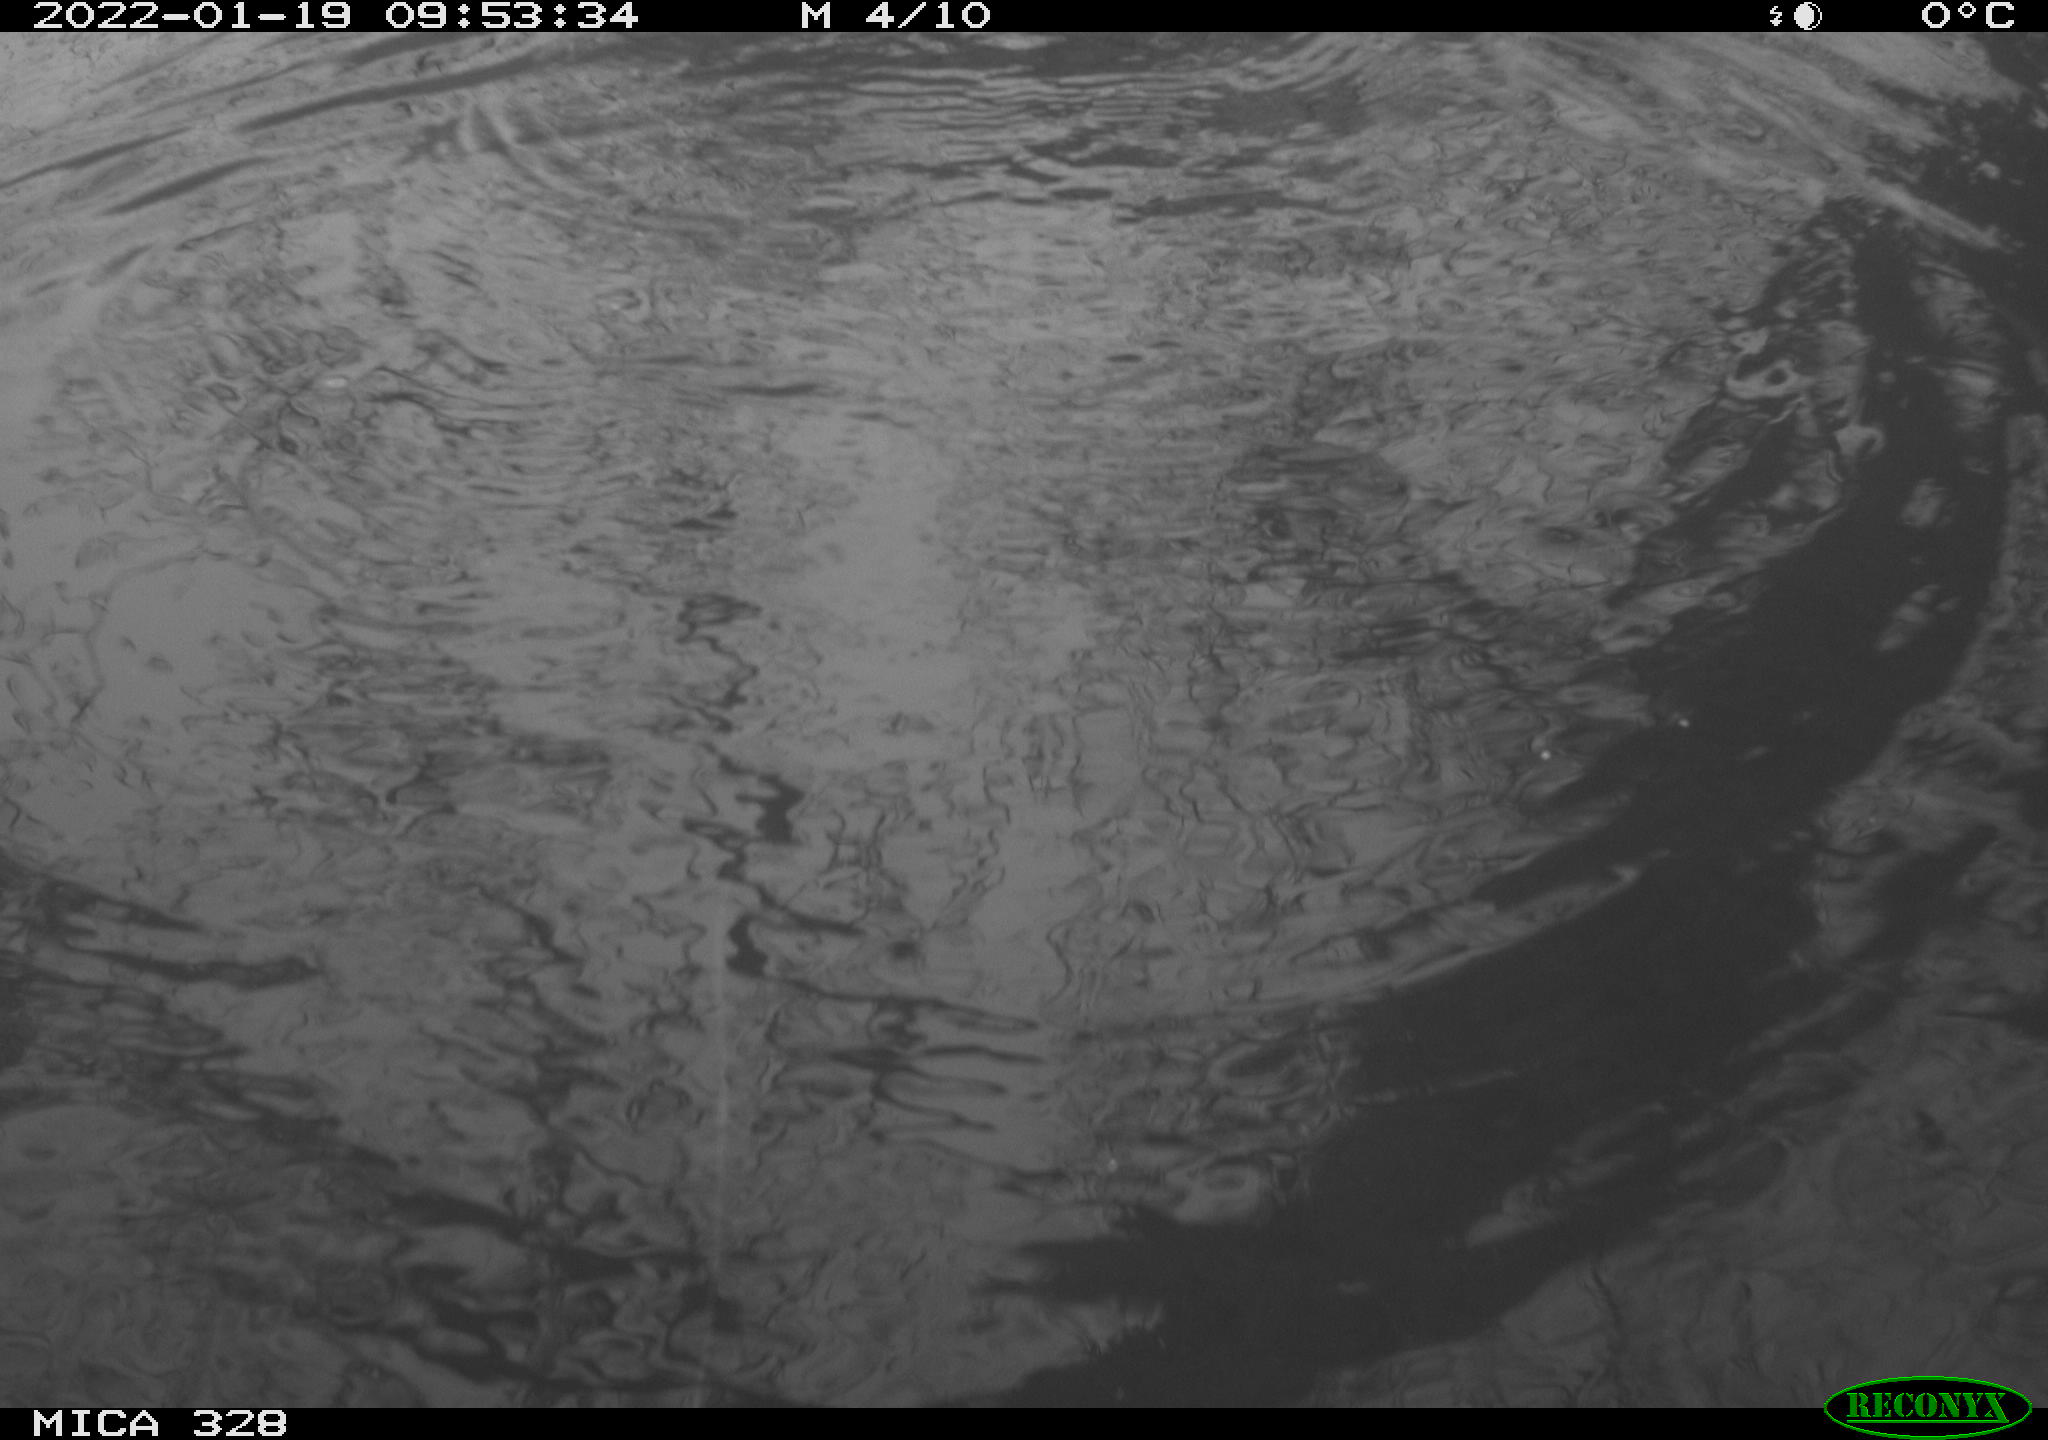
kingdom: Animalia
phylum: Chordata
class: Mammalia
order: Rodentia
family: Cricetidae
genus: Ondatra
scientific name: Ondatra zibethicus
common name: Muskrat
